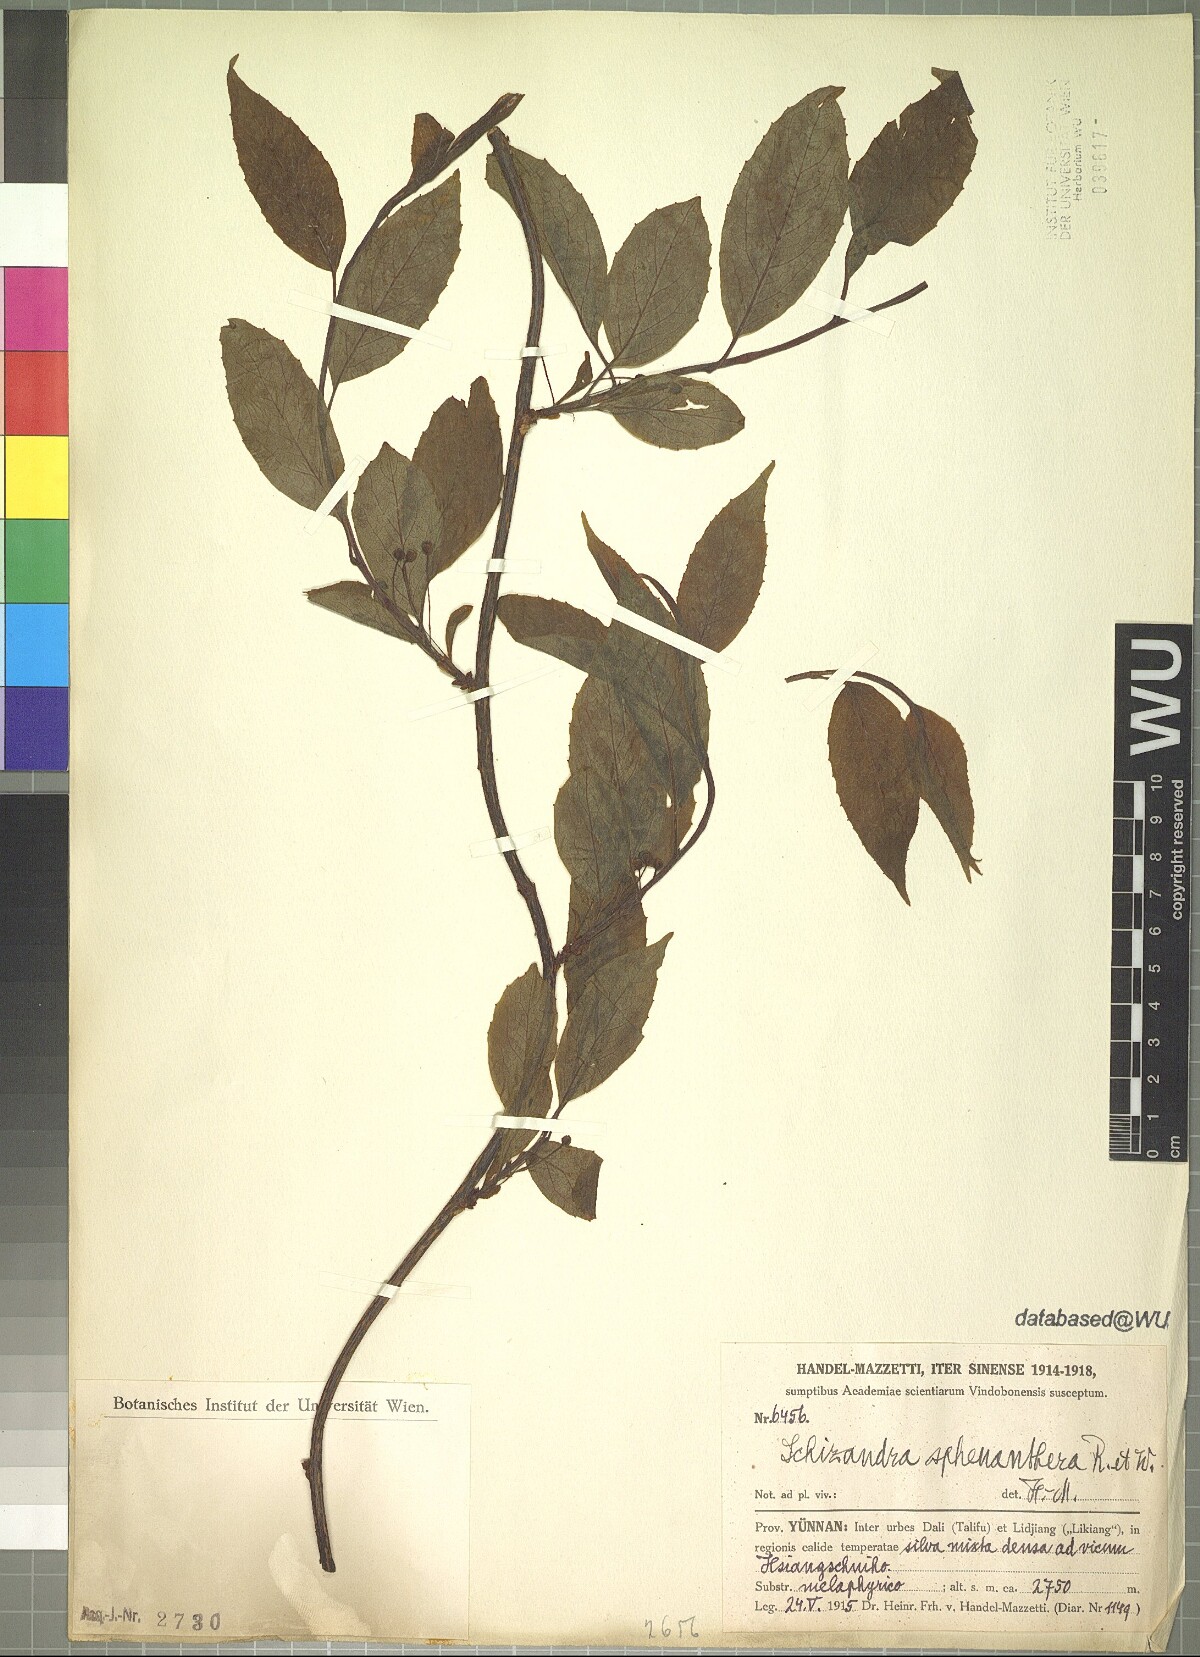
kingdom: Plantae
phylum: Tracheophyta
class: Magnoliopsida
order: Austrobaileyales
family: Schisandraceae
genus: Schisandra
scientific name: Schisandra sphenanthera
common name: Lemonwood
